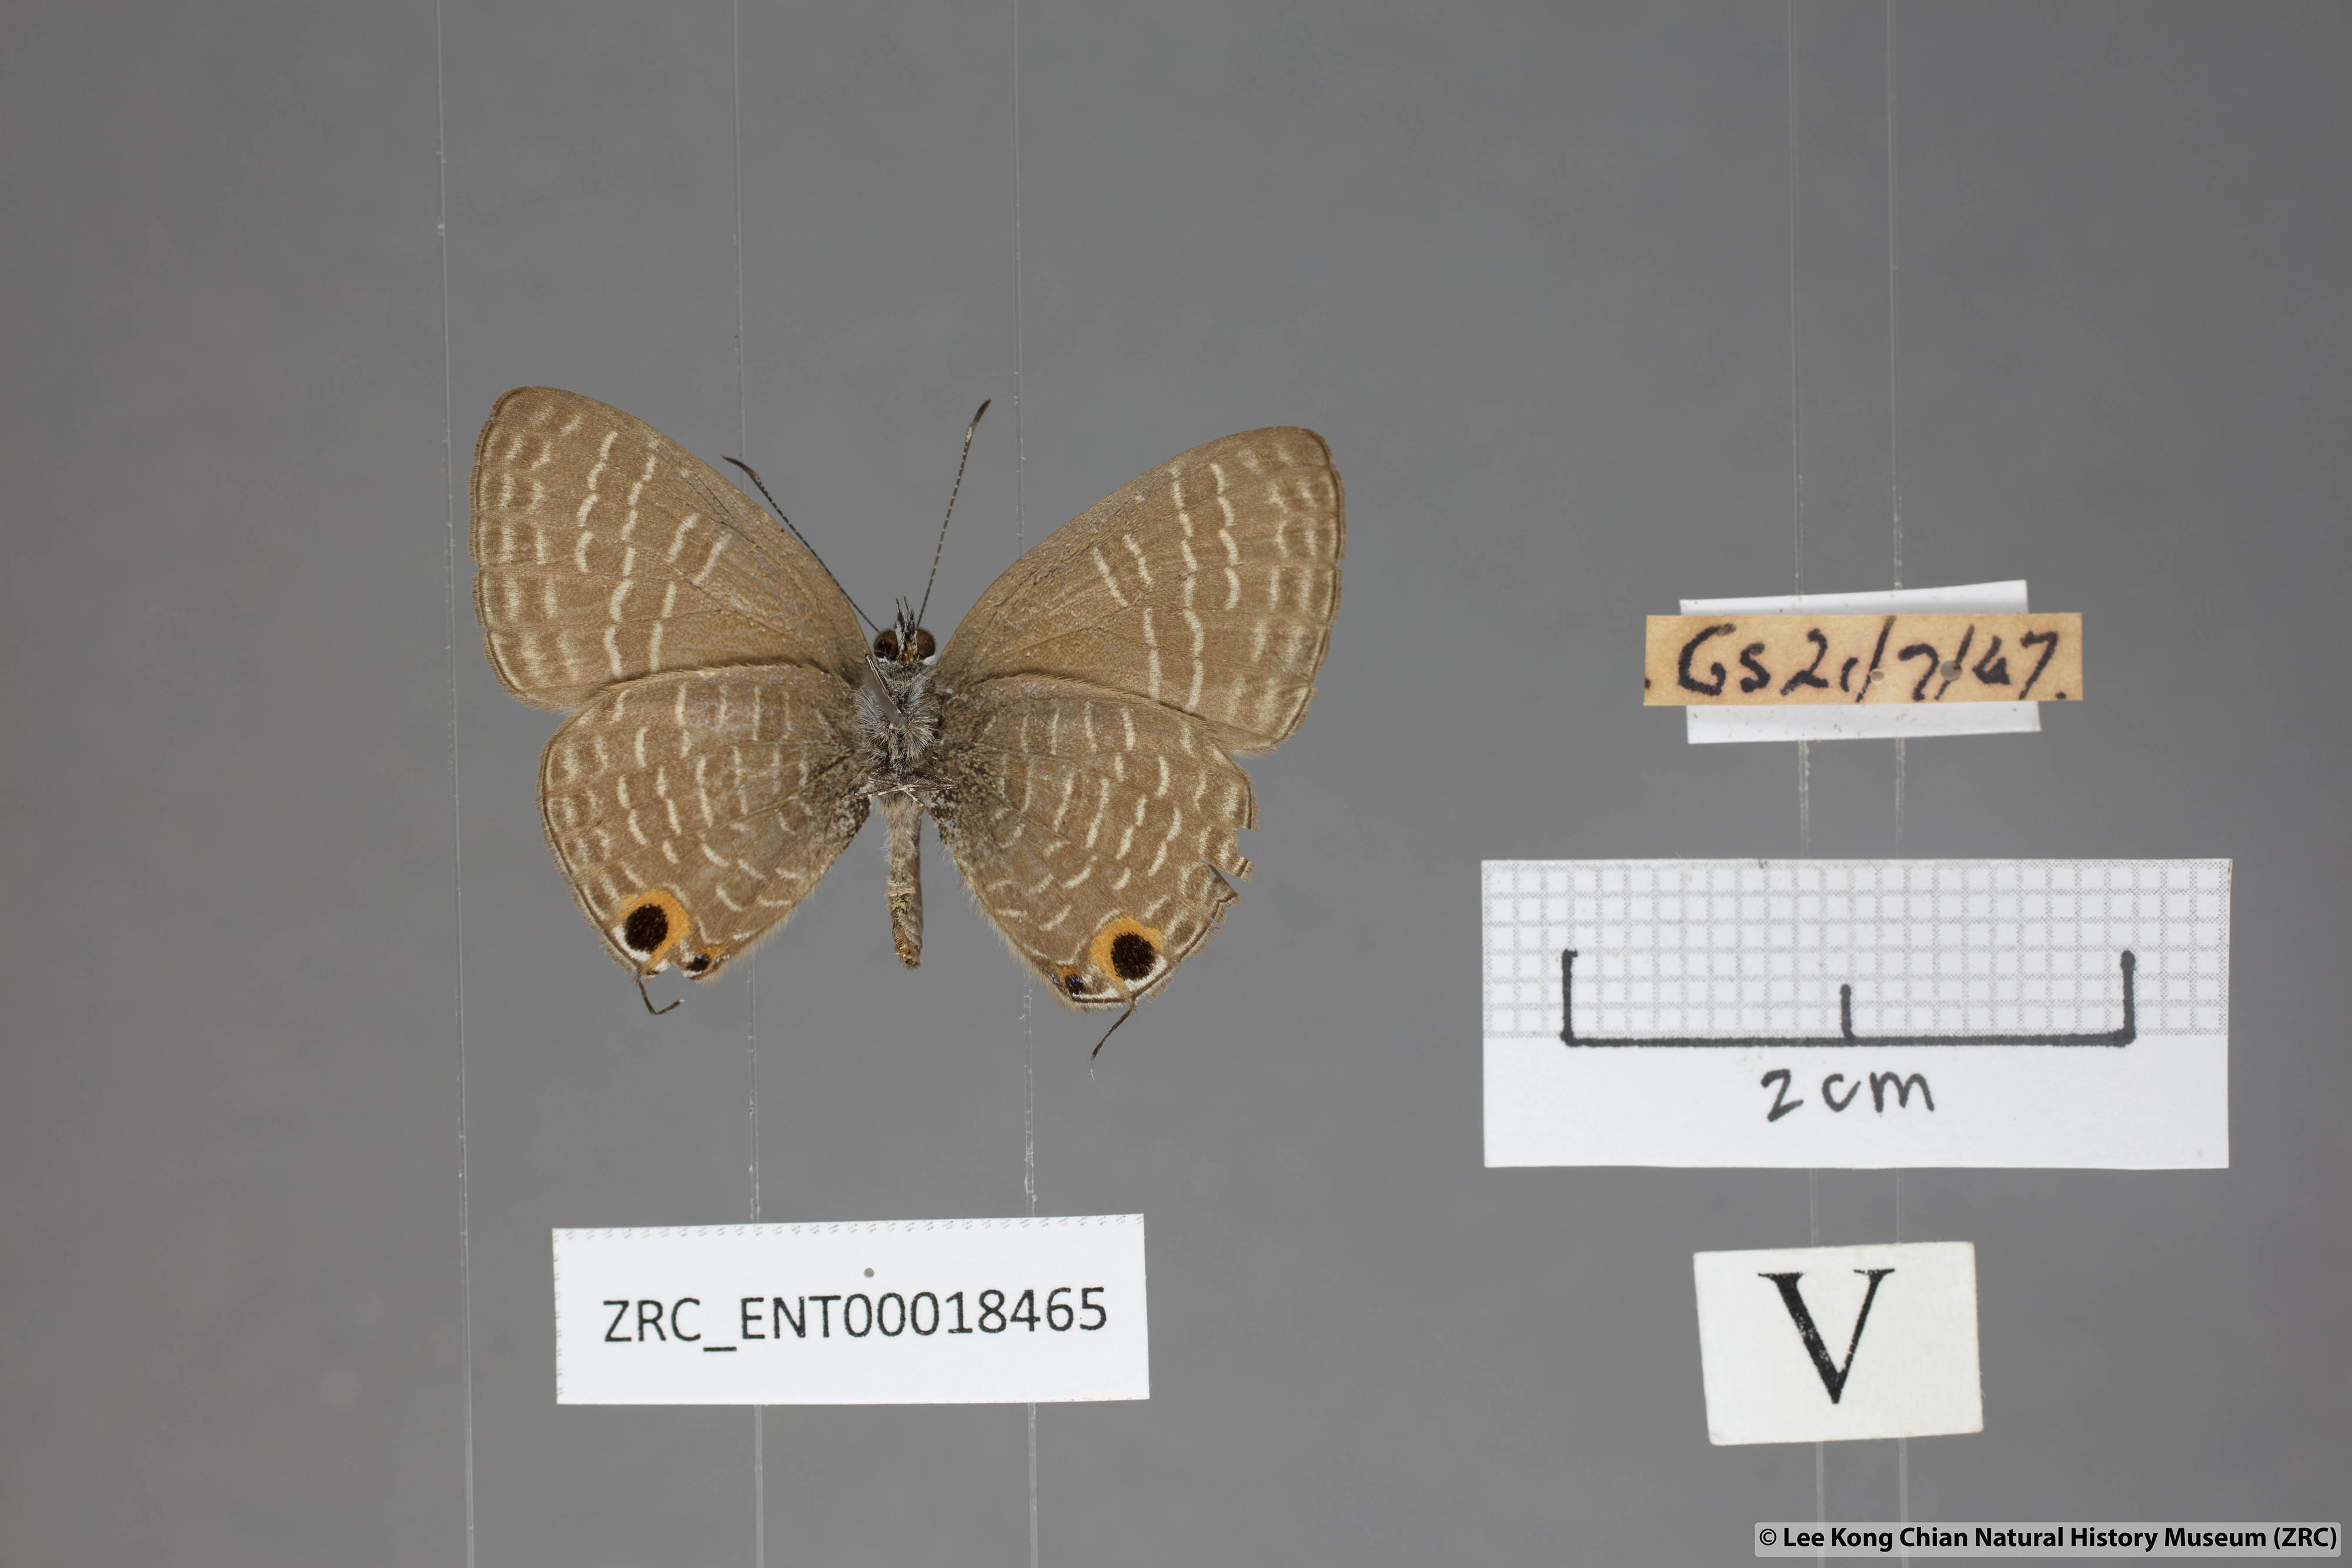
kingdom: Animalia
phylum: Arthropoda
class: Insecta
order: Lepidoptera
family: Lycaenidae
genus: Nacaduba
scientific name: Nacaduba solta
